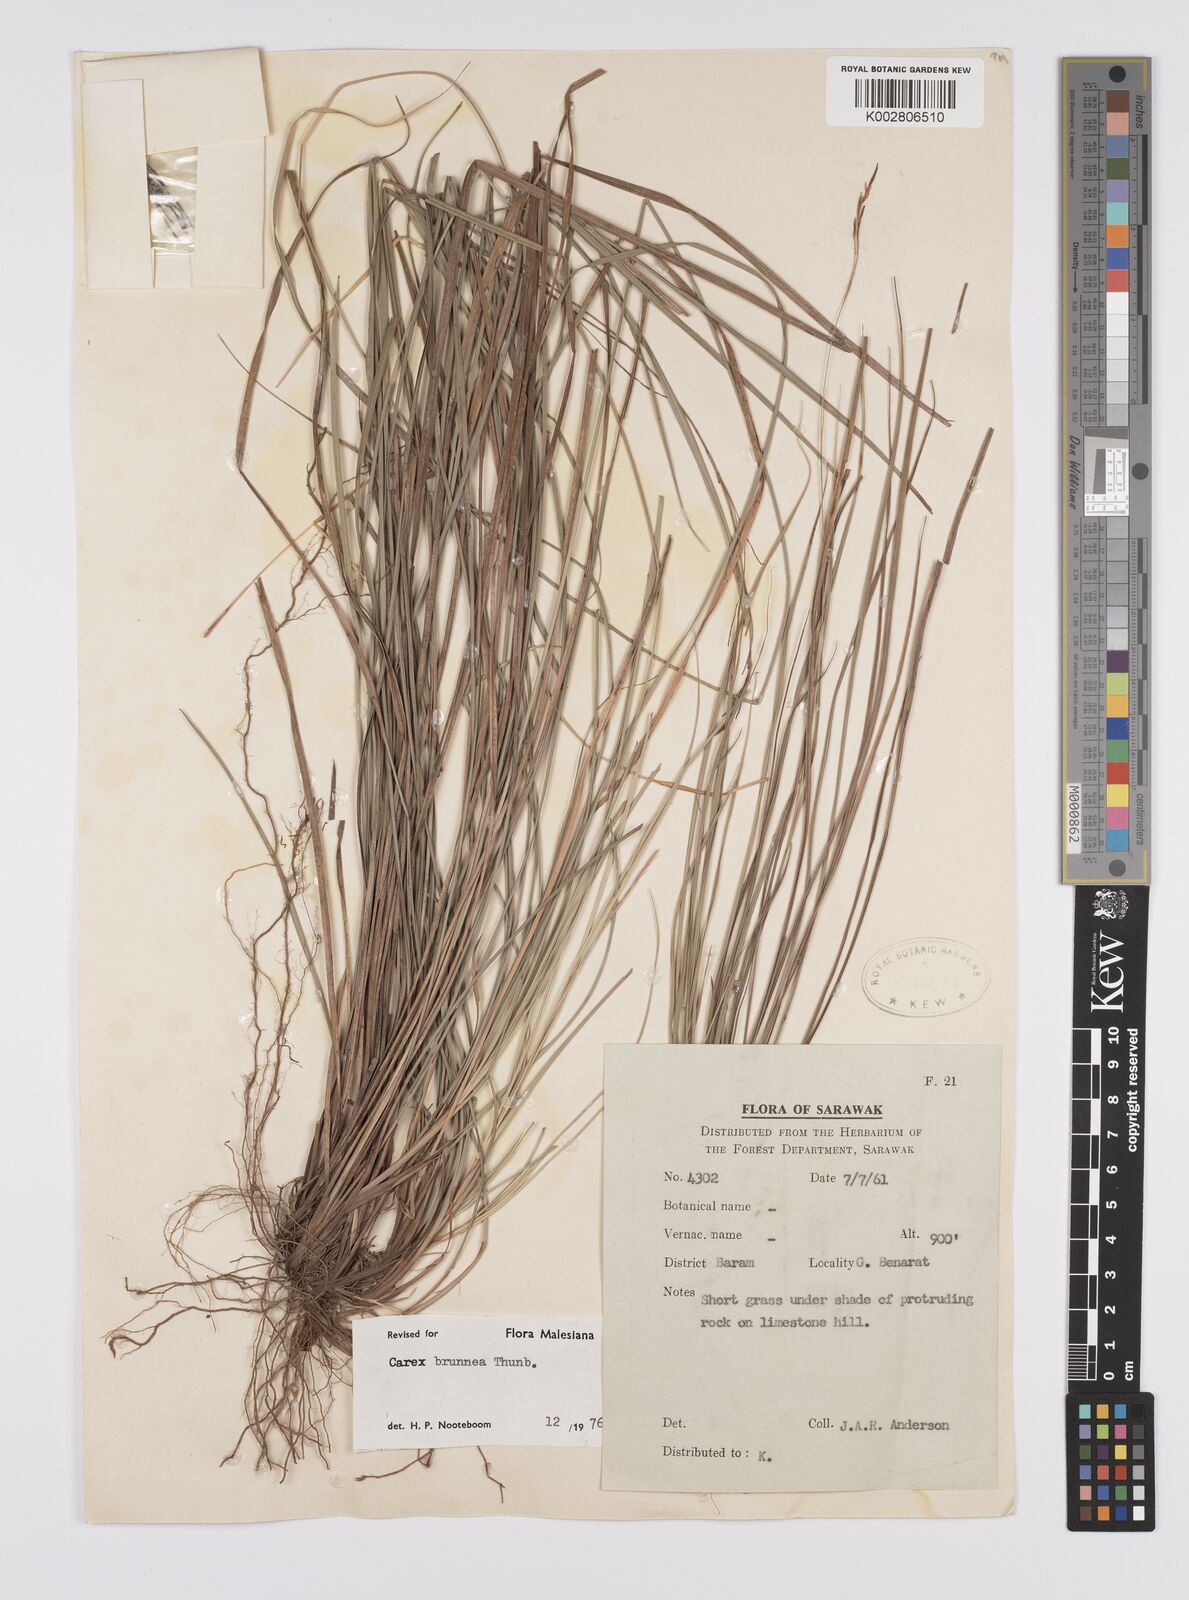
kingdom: Plantae
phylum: Tracheophyta
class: Liliopsida
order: Poales
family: Cyperaceae
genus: Carex
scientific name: Carex brunnea
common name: Greater brown sedge
